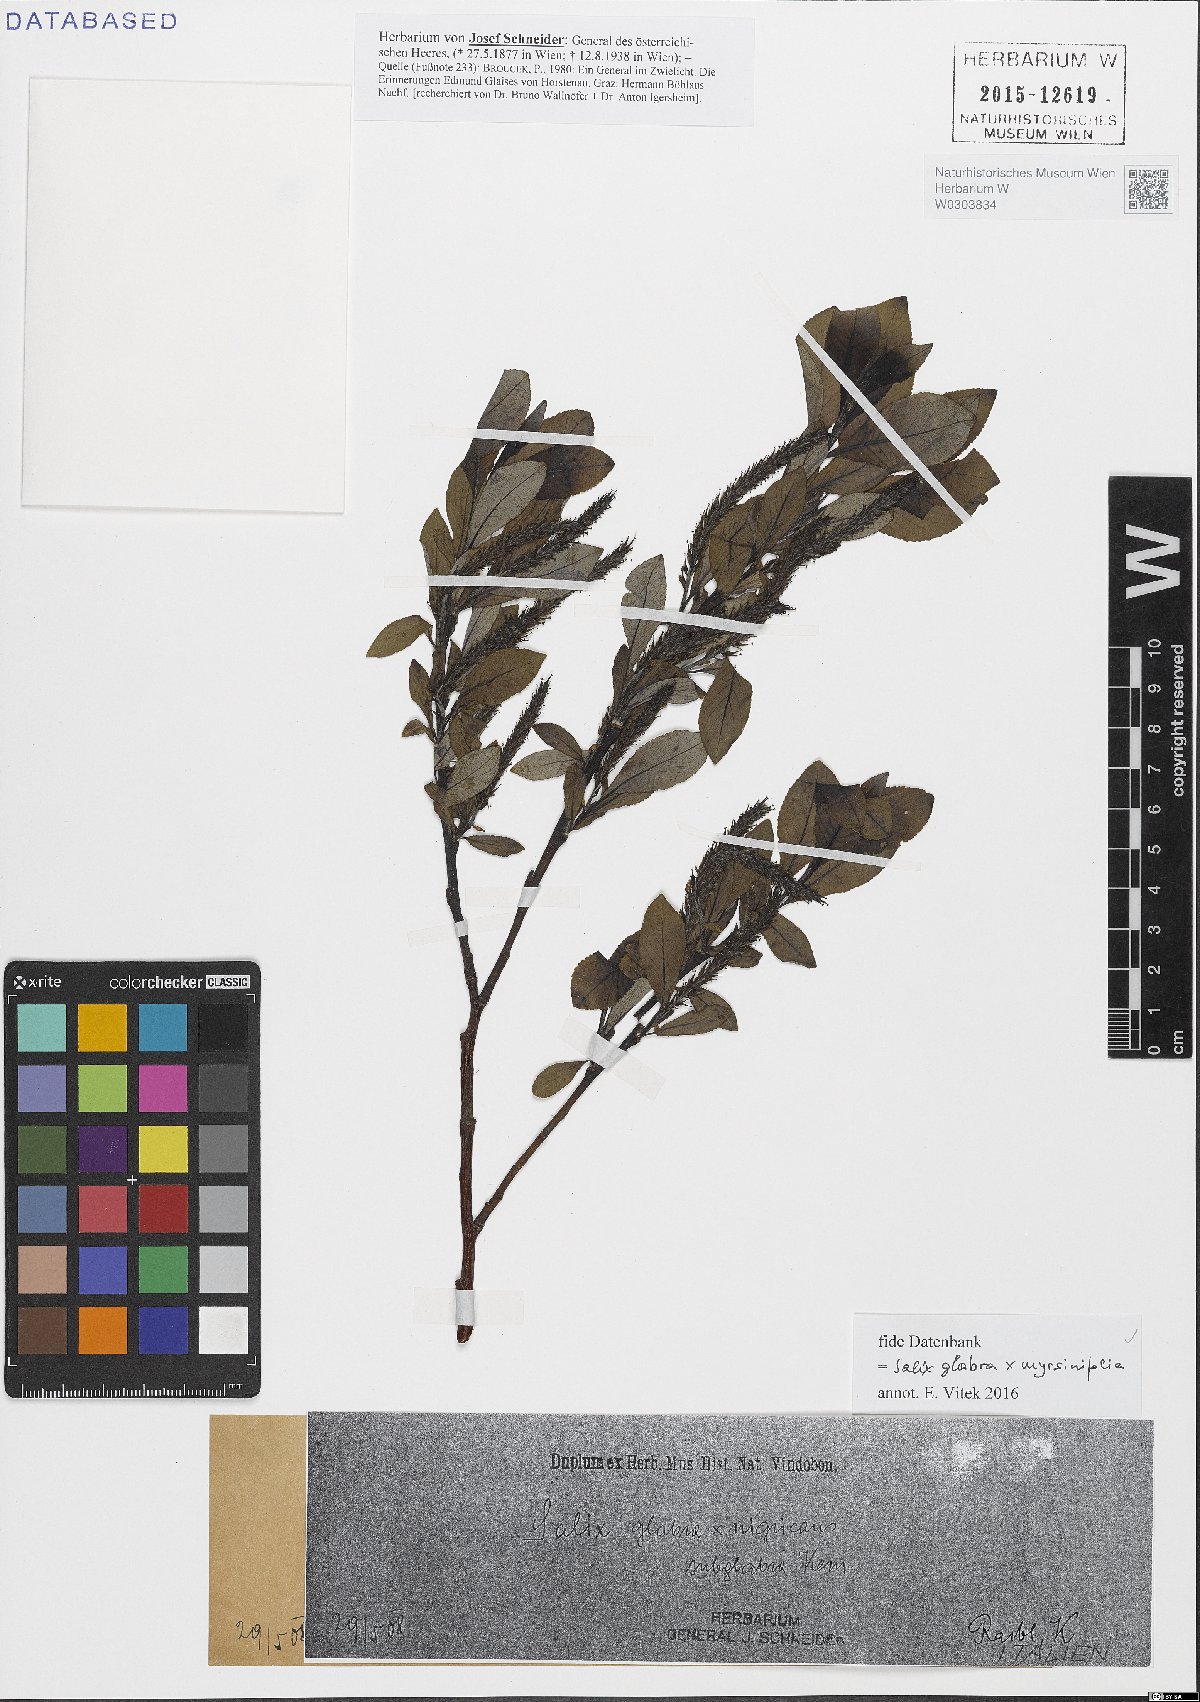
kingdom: Plantae
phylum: Tracheophyta
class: Magnoliopsida
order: Malpighiales
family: Salicaceae
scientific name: Salicaceae
